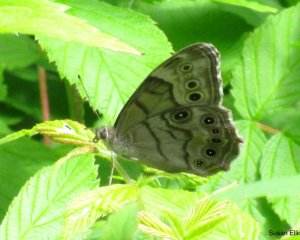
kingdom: Animalia
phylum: Arthropoda
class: Insecta
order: Lepidoptera
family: Nymphalidae
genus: Lethe
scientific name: Lethe anthedon
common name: Northern Pearly-Eye
